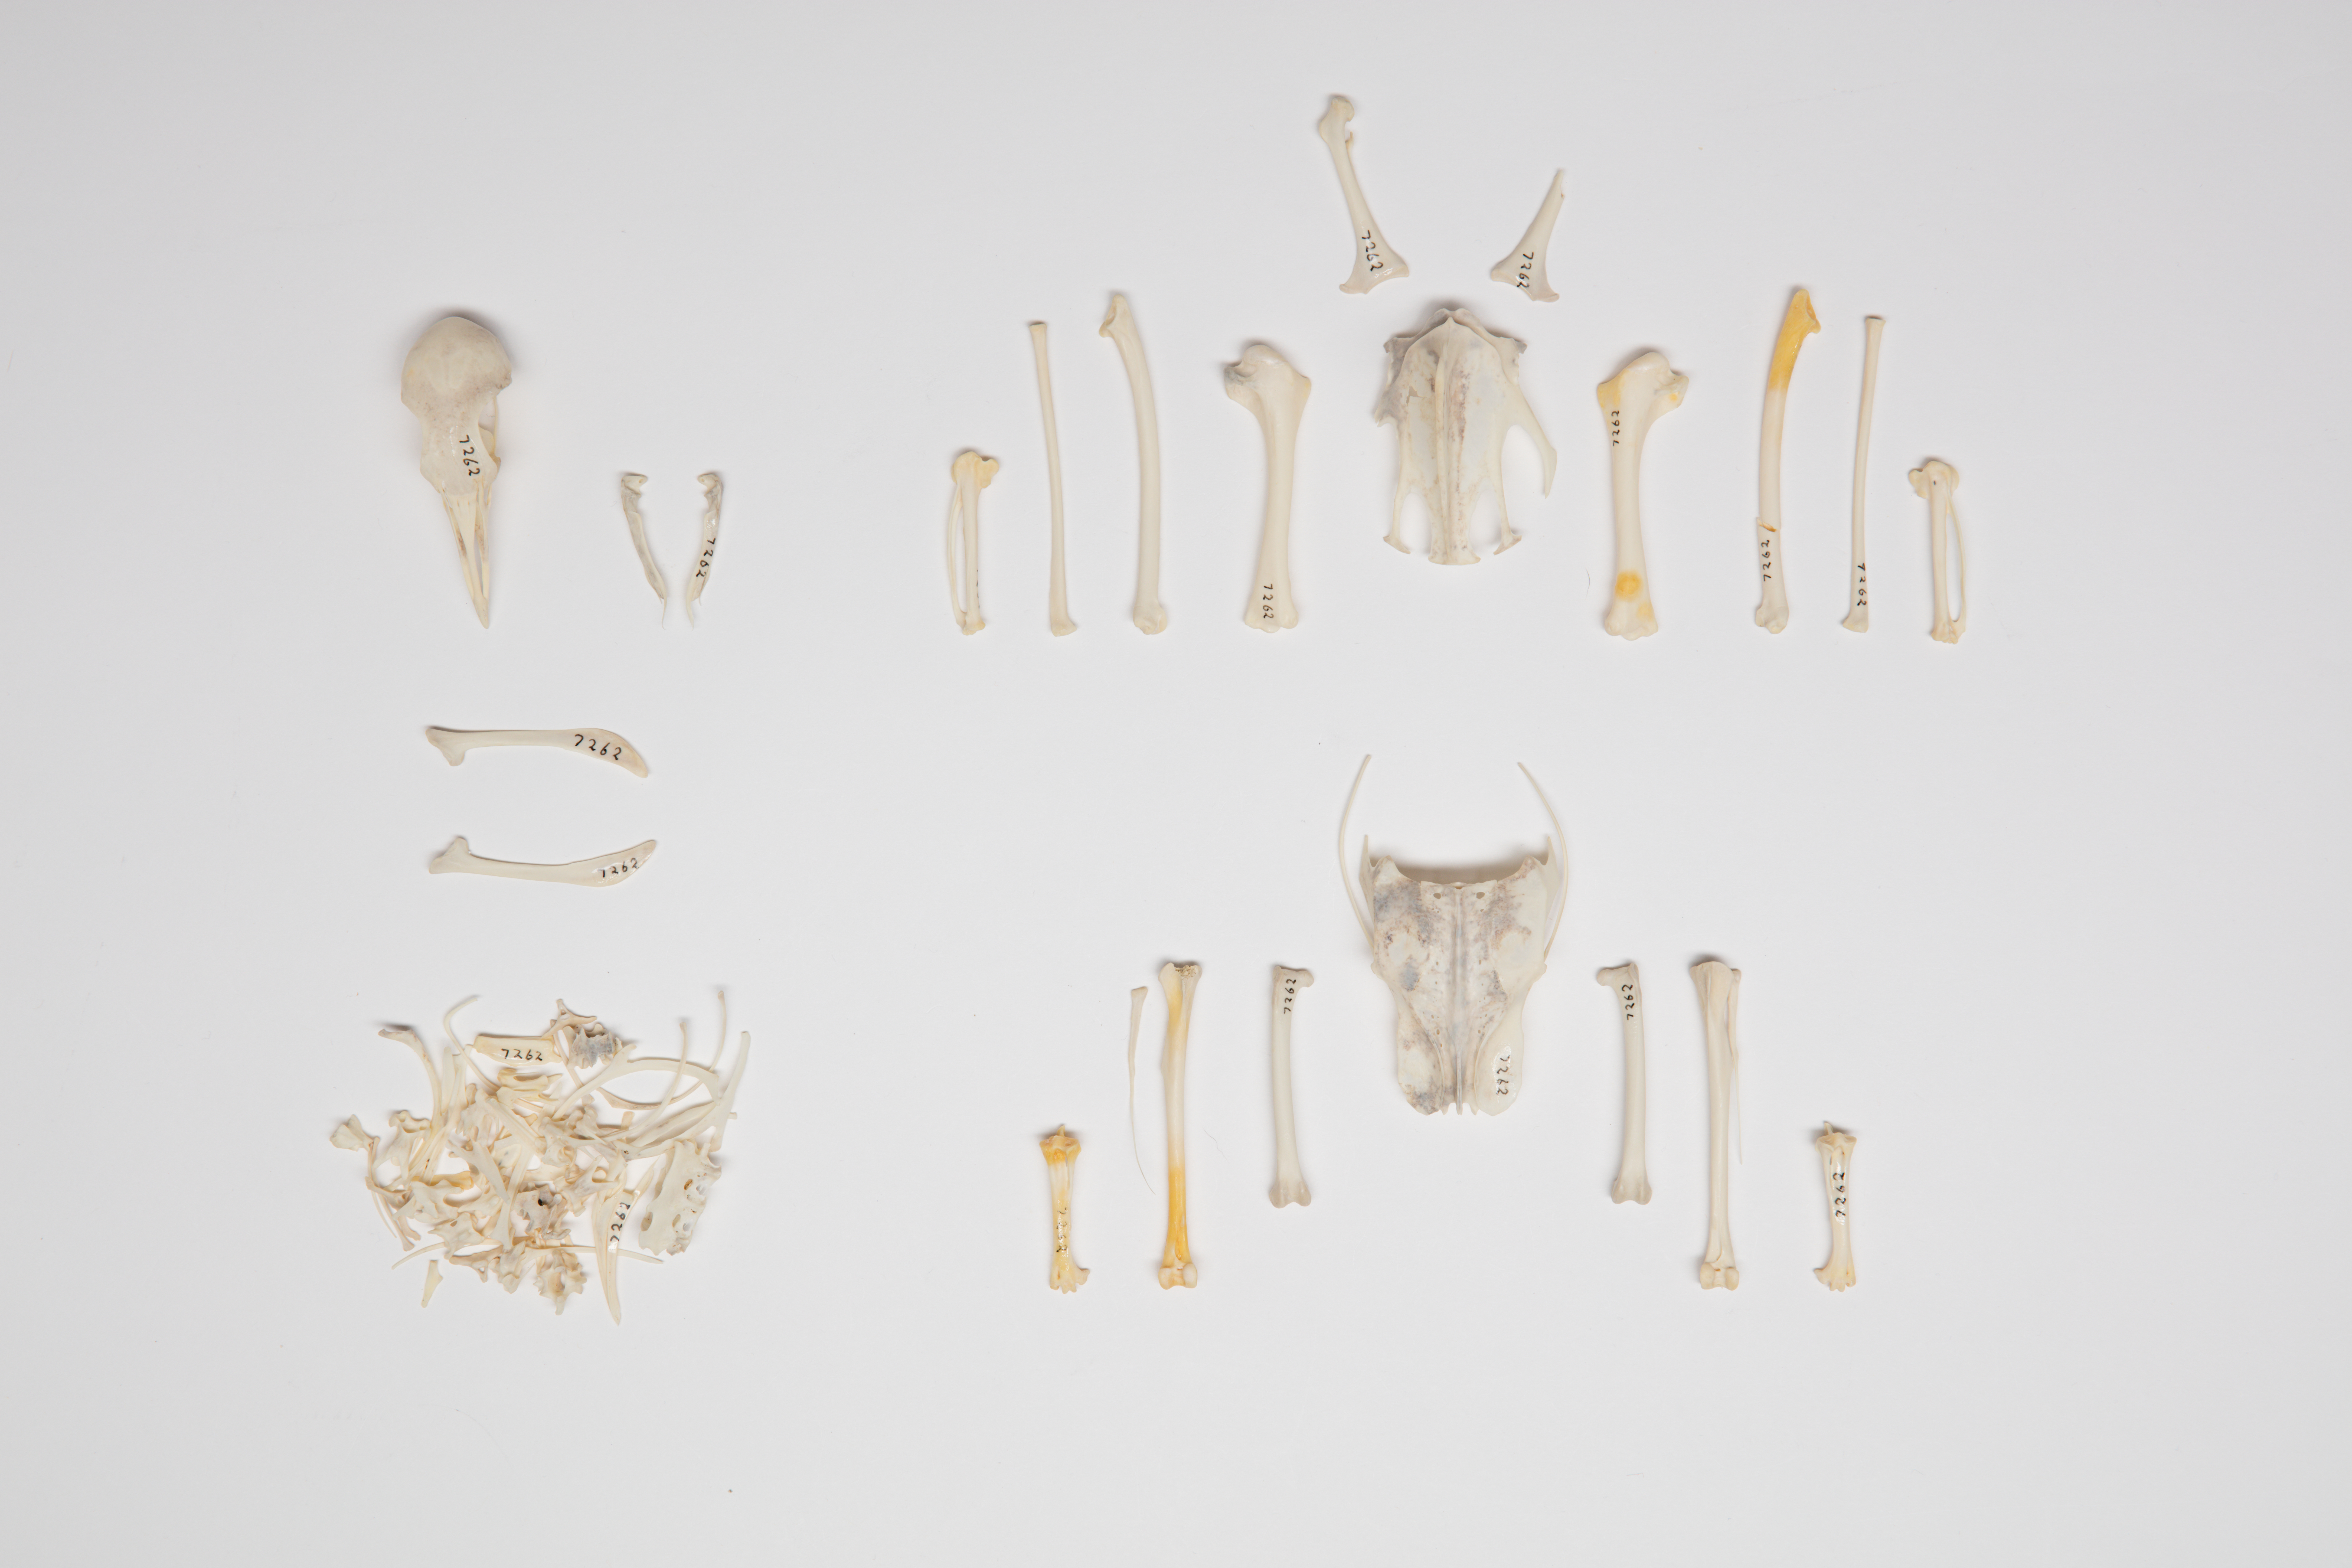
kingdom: Animalia
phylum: Chordata
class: Aves
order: Columbiformes
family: Columbidae
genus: Ducula
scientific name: Ducula pacifica
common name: Pacific imperial-pigeon
